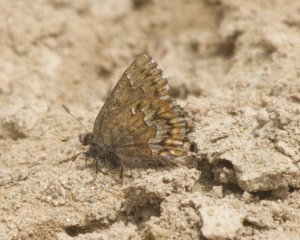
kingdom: Animalia
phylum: Arthropoda
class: Insecta
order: Lepidoptera
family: Lycaenidae
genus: Incisalia
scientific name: Incisalia niphon
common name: Eastern Pine Elfin
